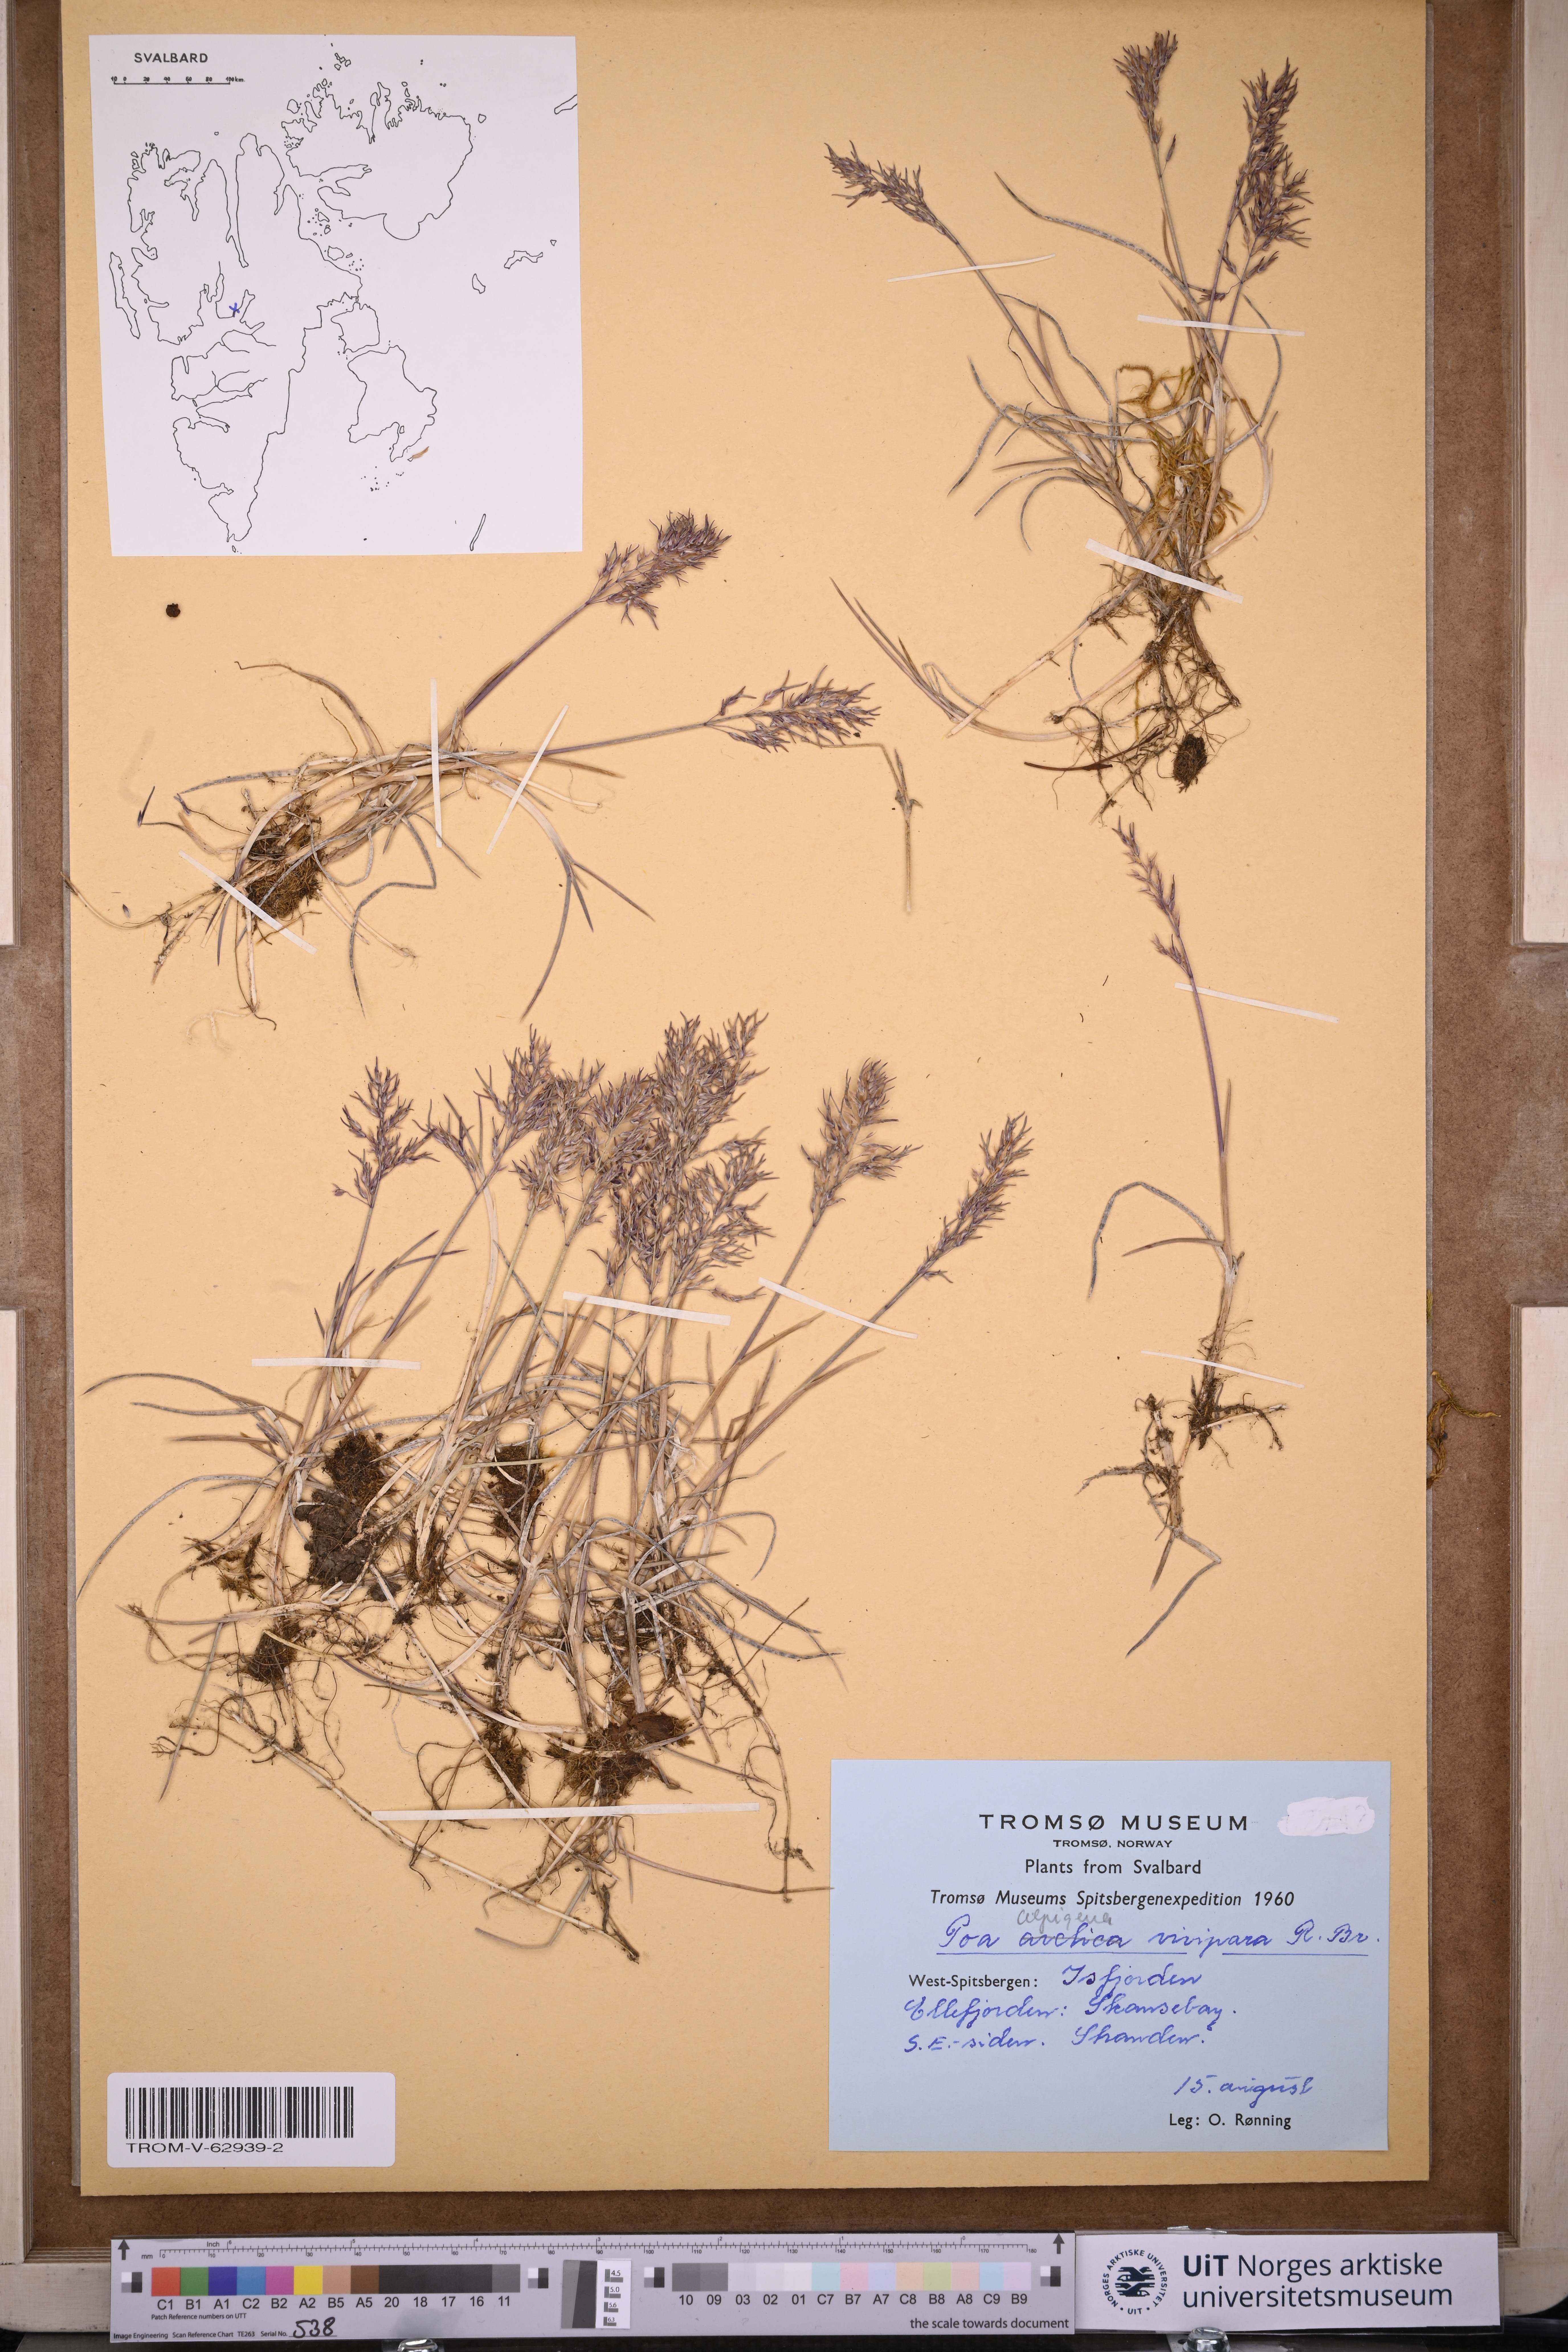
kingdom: Plantae
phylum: Tracheophyta
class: Liliopsida
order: Poales
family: Poaceae
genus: Poa
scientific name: Poa arctica
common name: Arctic bluegrass
